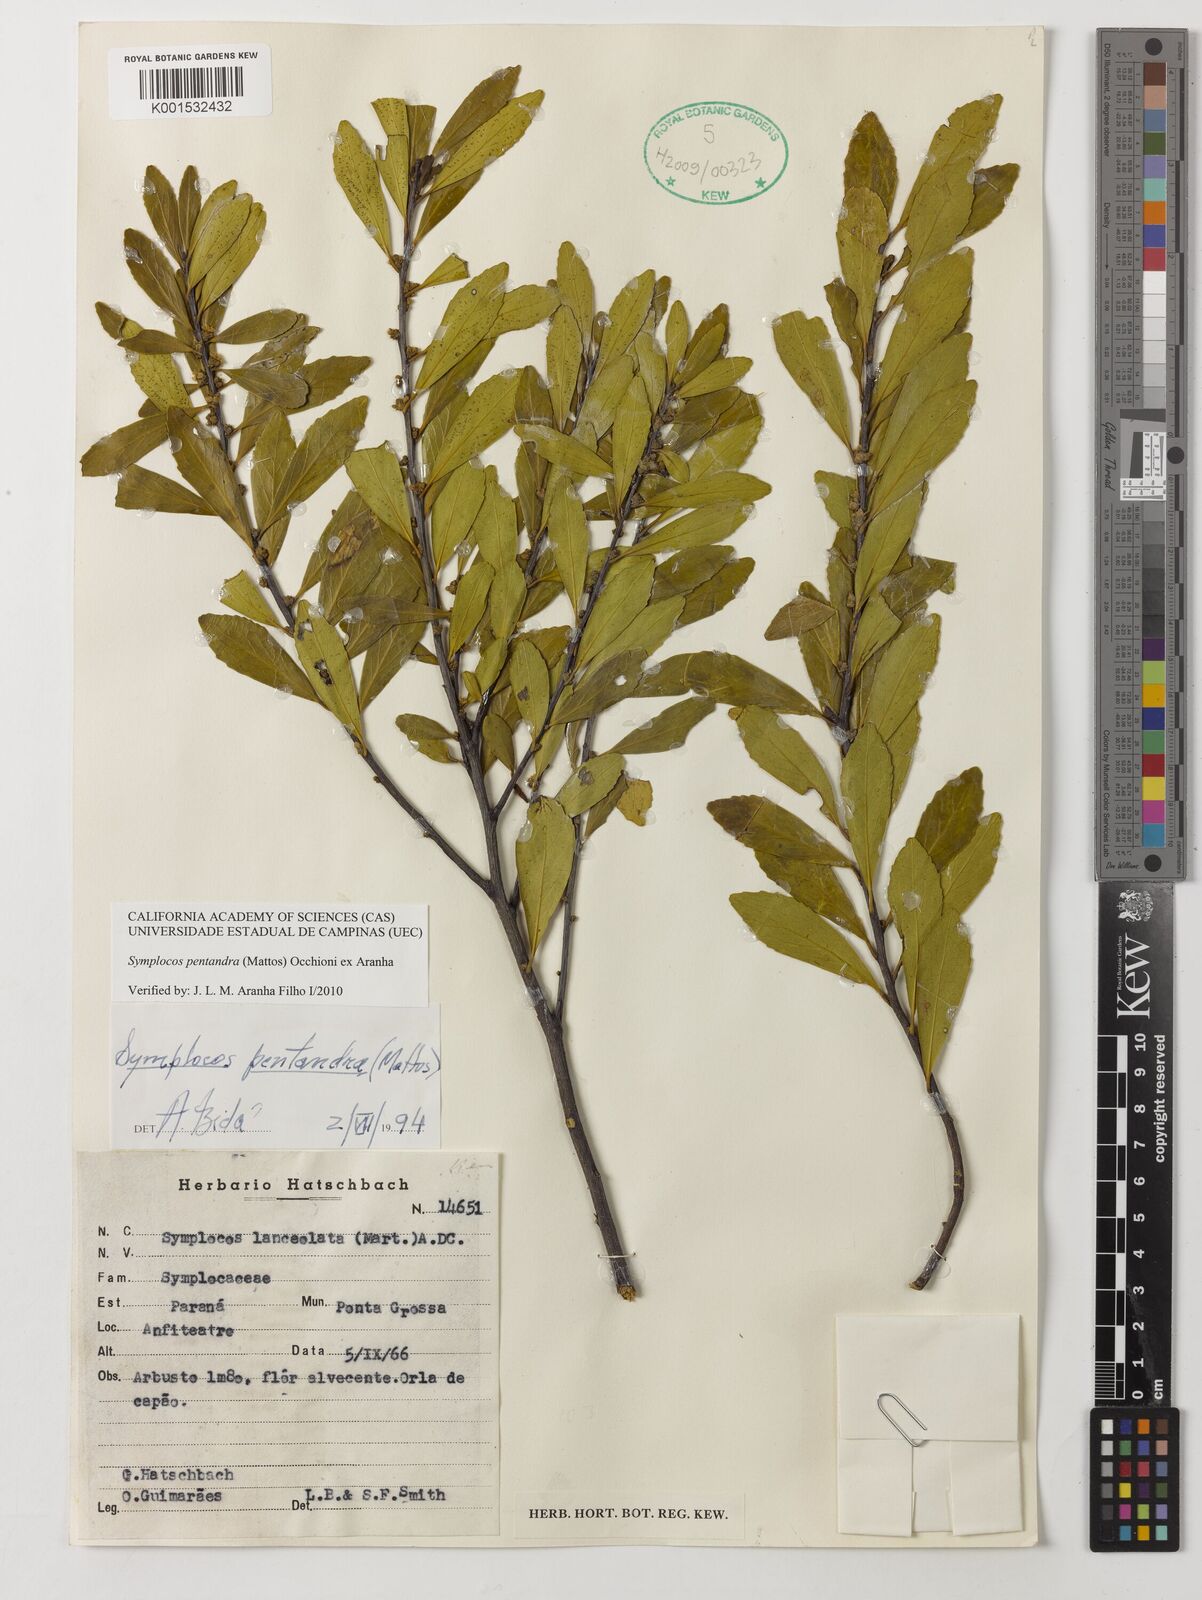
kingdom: Plantae
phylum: Tracheophyta
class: Magnoliopsida
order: Ericales
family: Symplocaceae
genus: Symplocos
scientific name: Symplocos pentandra
